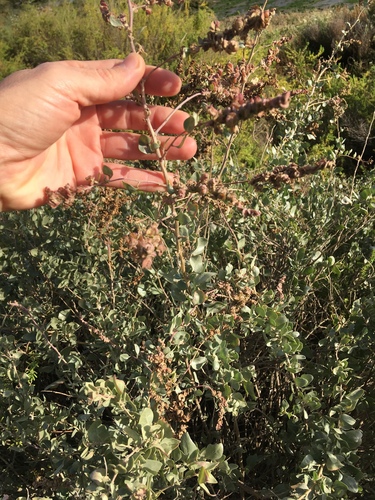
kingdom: Plantae
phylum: Tracheophyta
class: Magnoliopsida
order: Caryophyllales
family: Amaranthaceae
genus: Atriplex
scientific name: Atriplex halimus
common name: Shrubby orache
